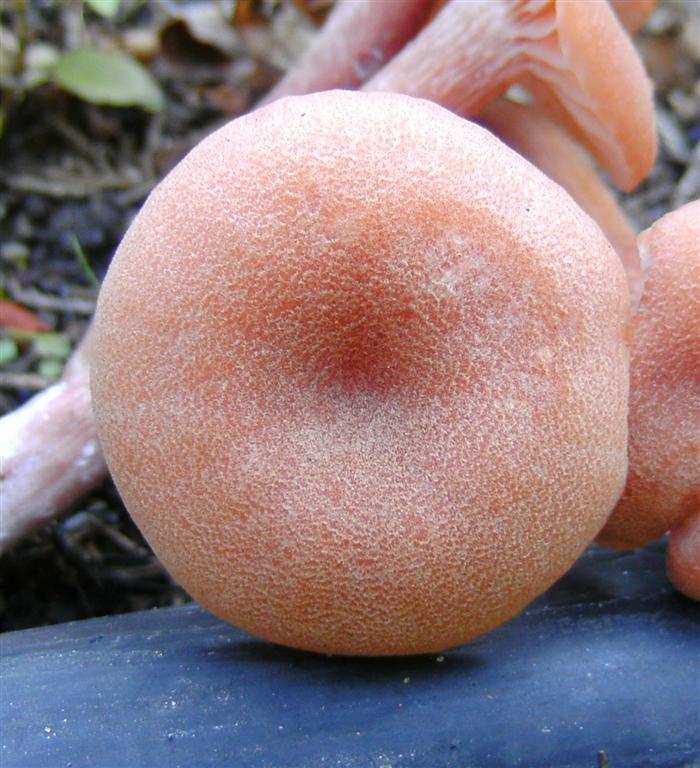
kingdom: Fungi
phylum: Basidiomycota
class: Agaricomycetes
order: Agaricales
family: Hydnangiaceae
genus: Laccaria
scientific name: Laccaria proxima
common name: stor ametysthat
